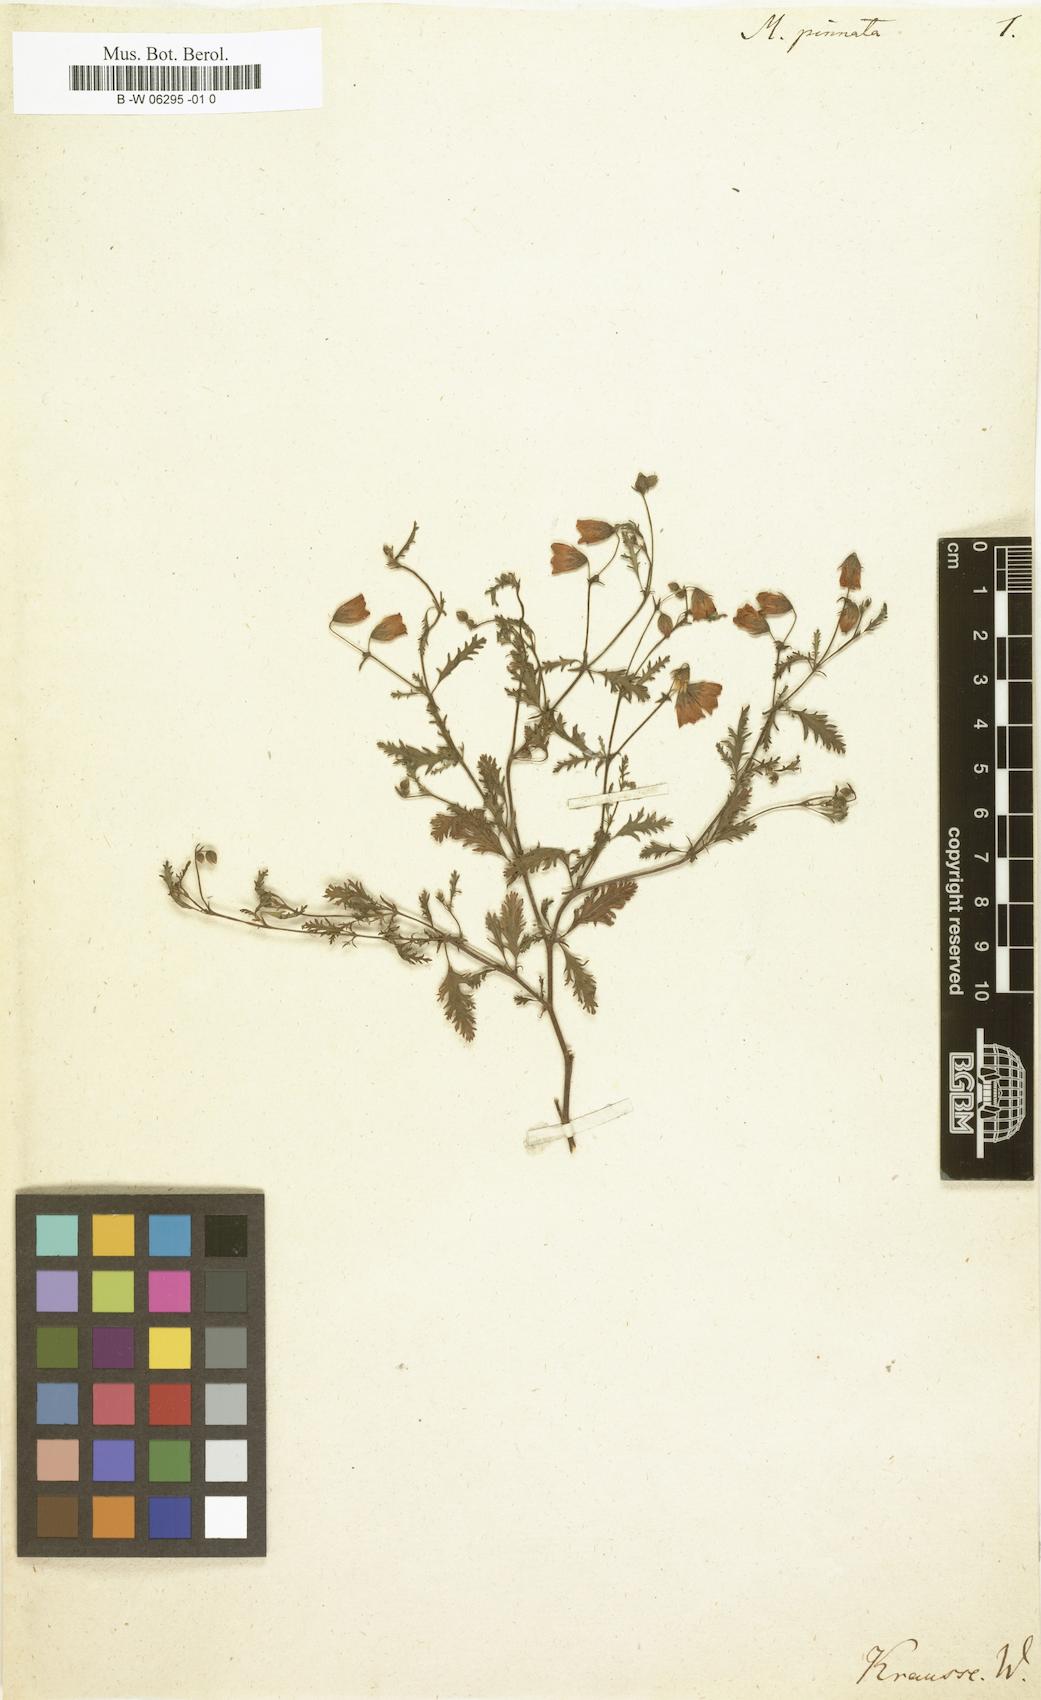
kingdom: Plantae
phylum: Tracheophyta
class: Magnoliopsida
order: Malvales
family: Malvaceae
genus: Hermannia
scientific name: Hermannia
